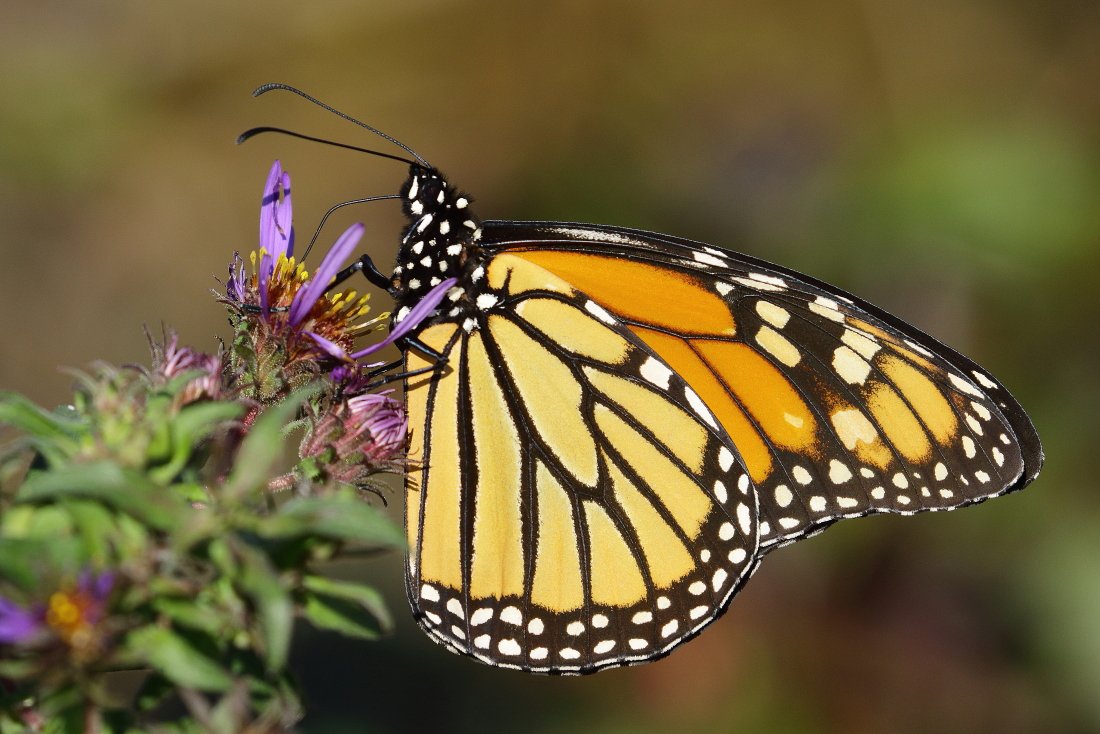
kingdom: Animalia
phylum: Arthropoda
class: Insecta
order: Lepidoptera
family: Nymphalidae
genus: Danaus
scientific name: Danaus plexippus
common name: Monarch
